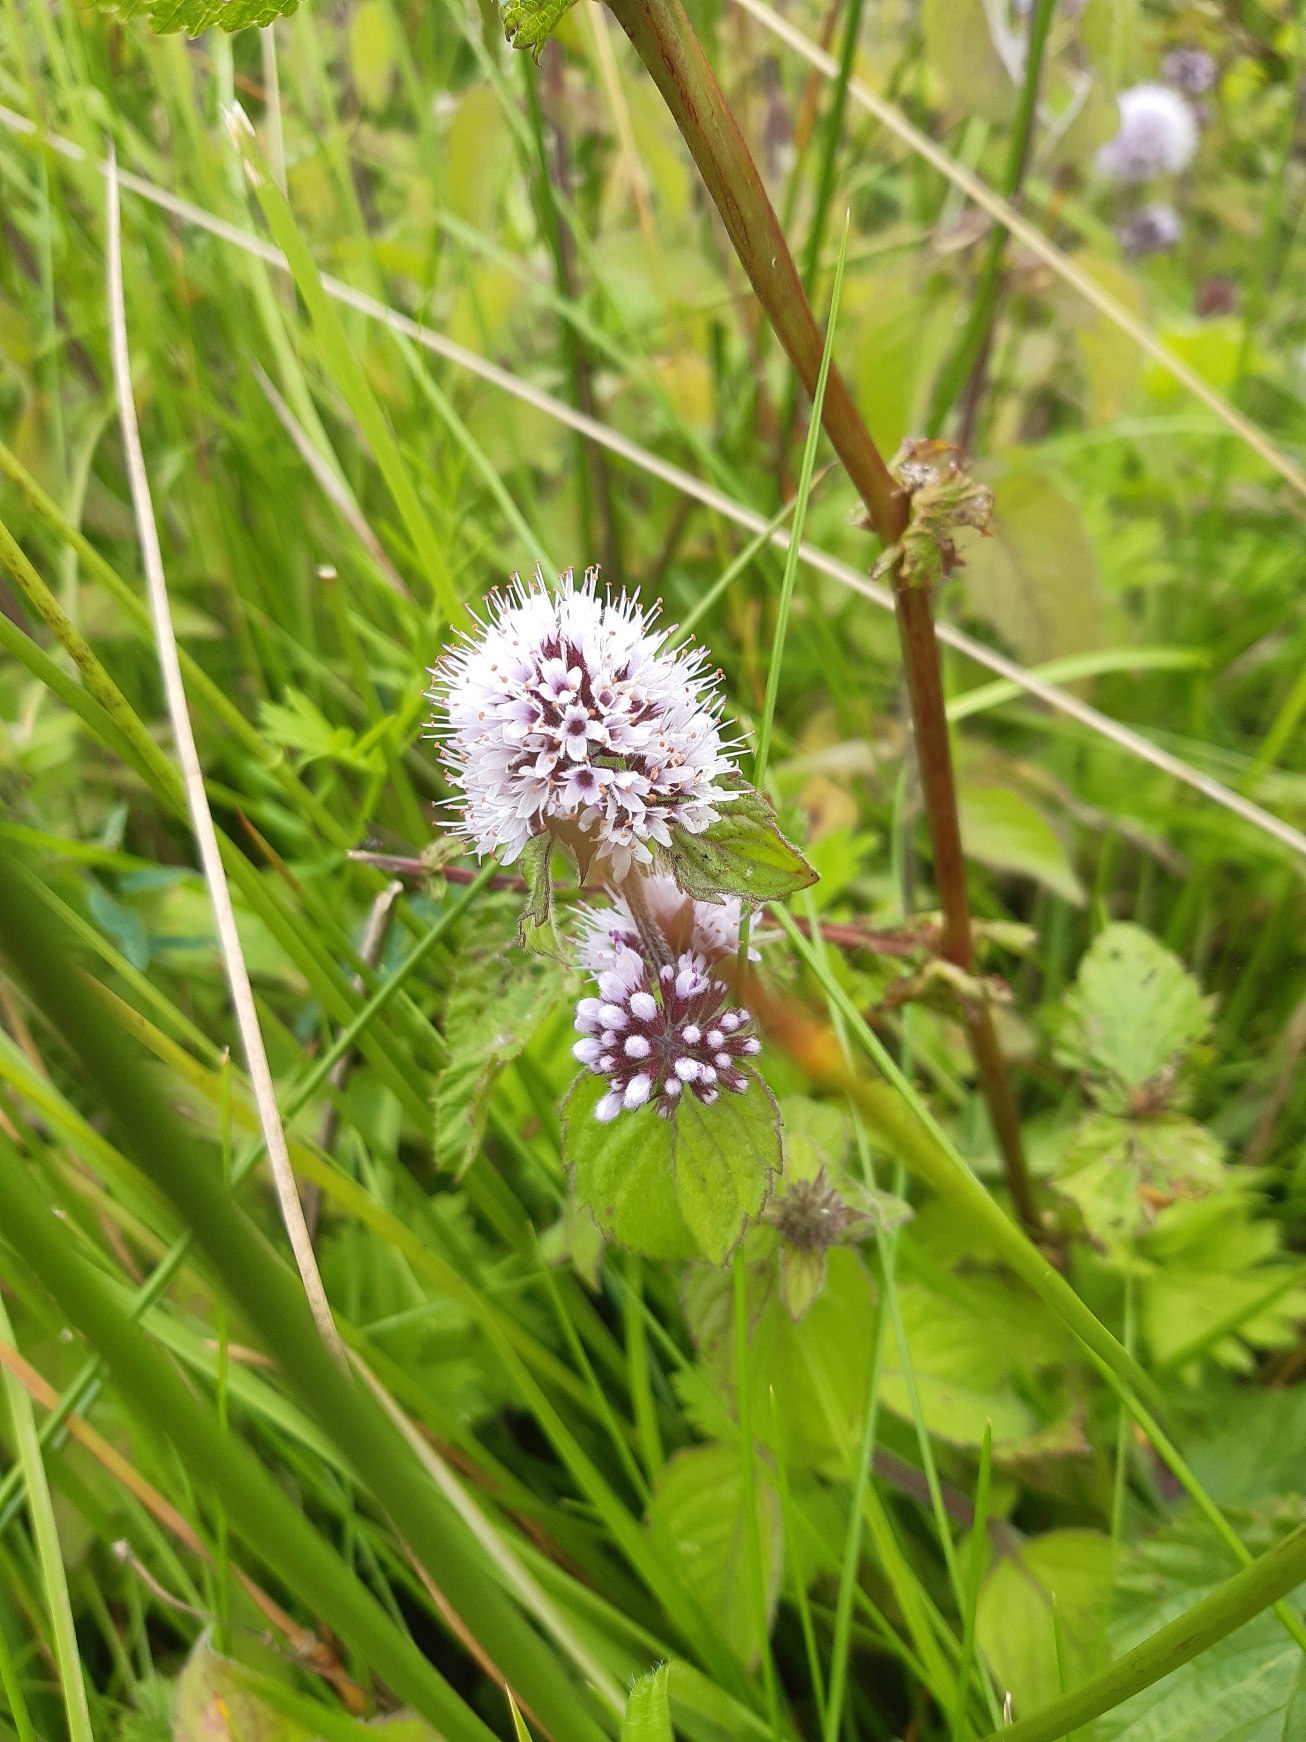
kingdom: Plantae
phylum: Tracheophyta
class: Magnoliopsida
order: Lamiales
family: Lamiaceae
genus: Mentha
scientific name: Mentha aquatica
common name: Vand-mynte
